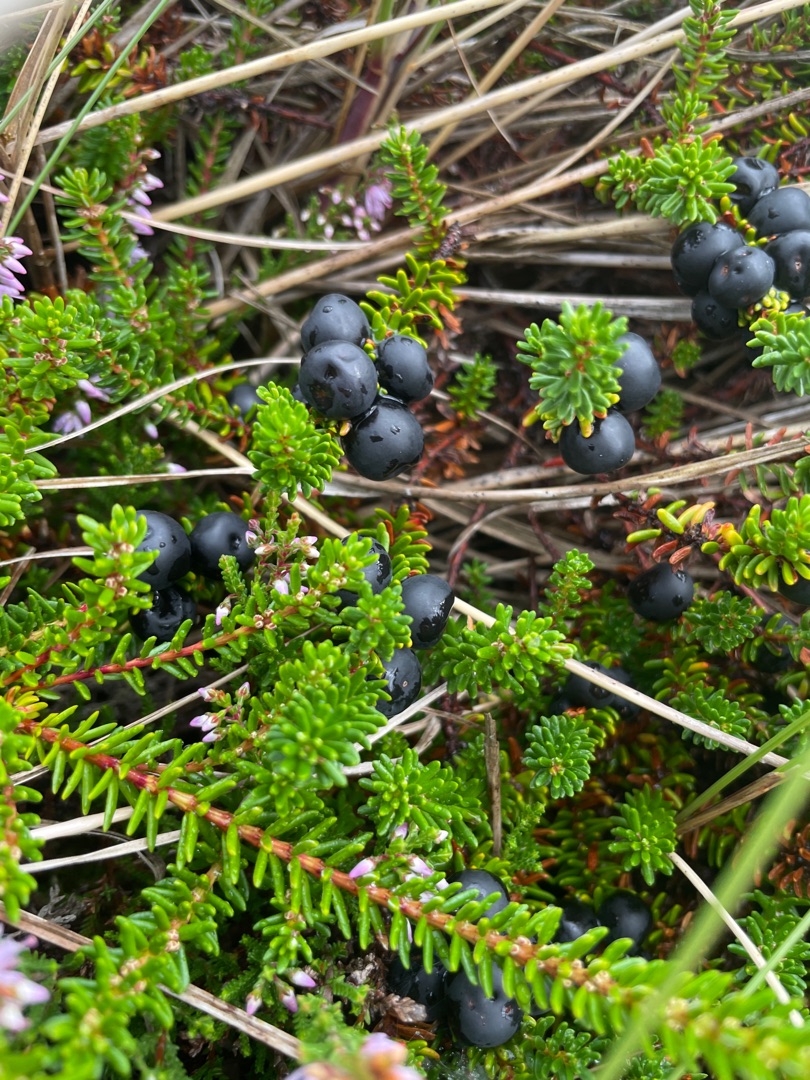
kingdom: Plantae
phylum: Tracheophyta
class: Magnoliopsida
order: Ericales
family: Ericaceae
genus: Empetrum
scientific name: Empetrum nigrum
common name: Revling
